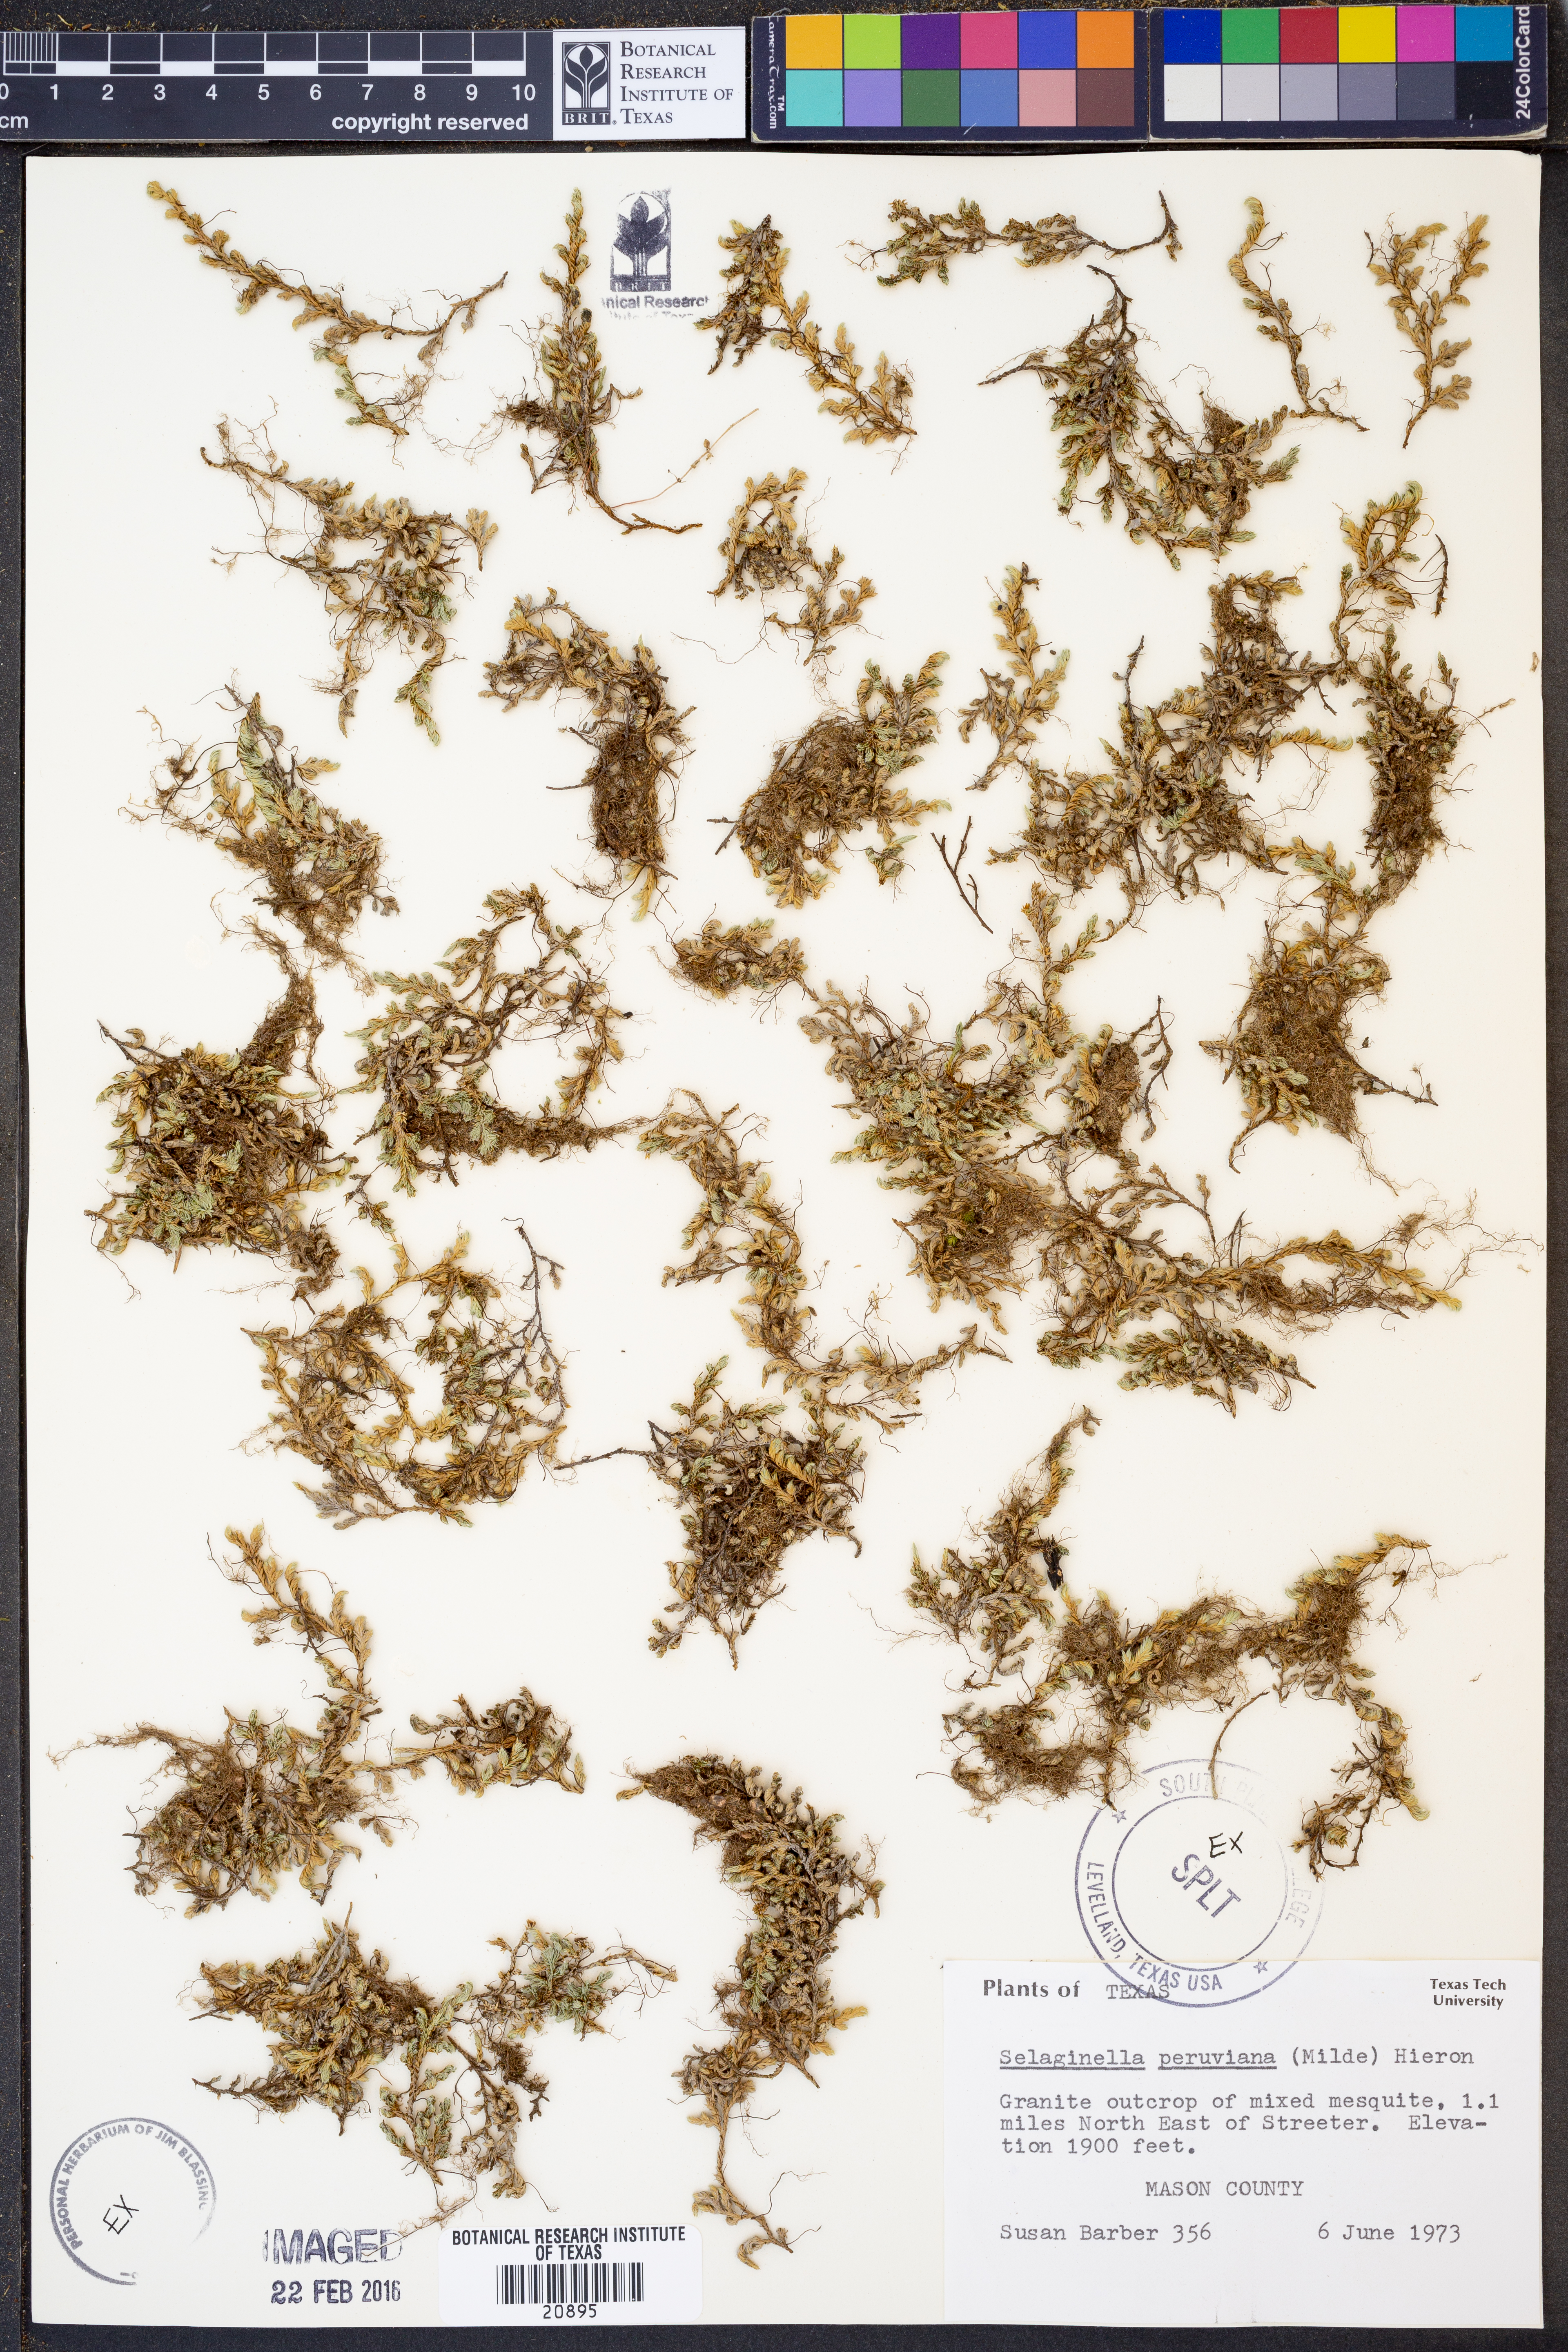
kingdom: Plantae
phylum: Tracheophyta
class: Lycopodiopsida
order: Selaginellales
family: Selaginellaceae
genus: Selaginella
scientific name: Selaginella peruviana
